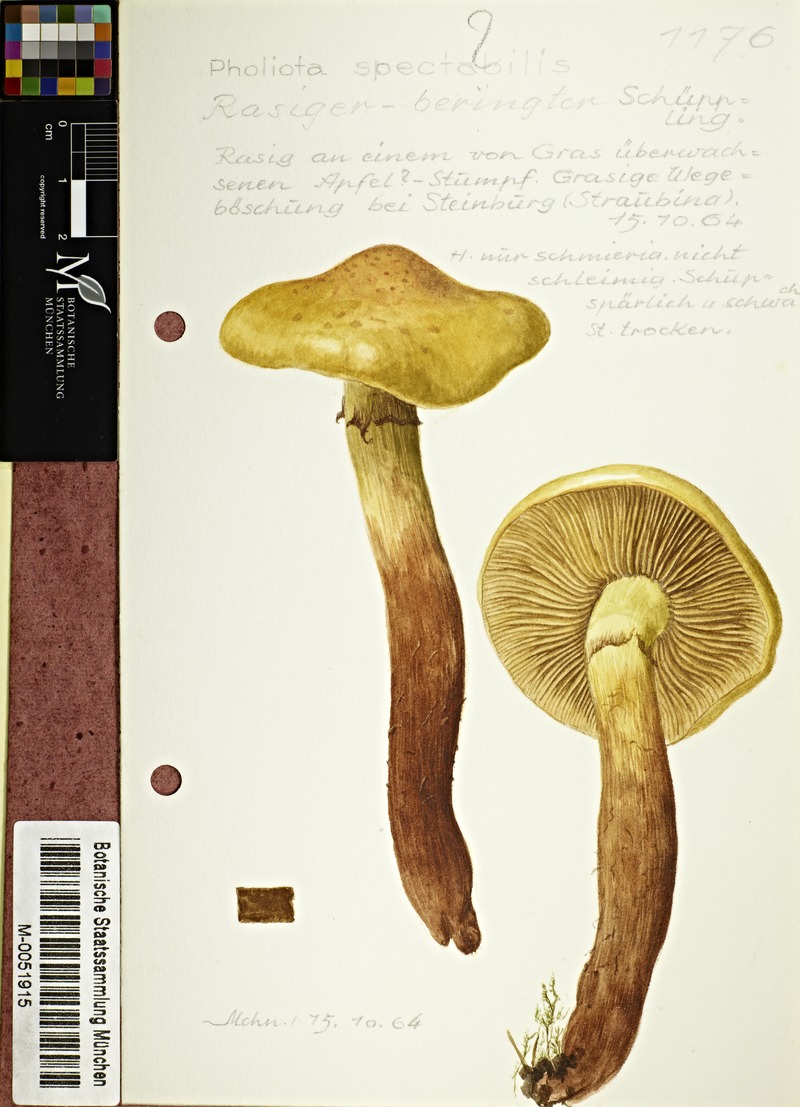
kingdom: Fungi
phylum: Basidiomycota
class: Agaricomycetes
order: Agaricales
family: Hymenogastraceae
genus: Gymnopilus
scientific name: Gymnopilus spectabilis
